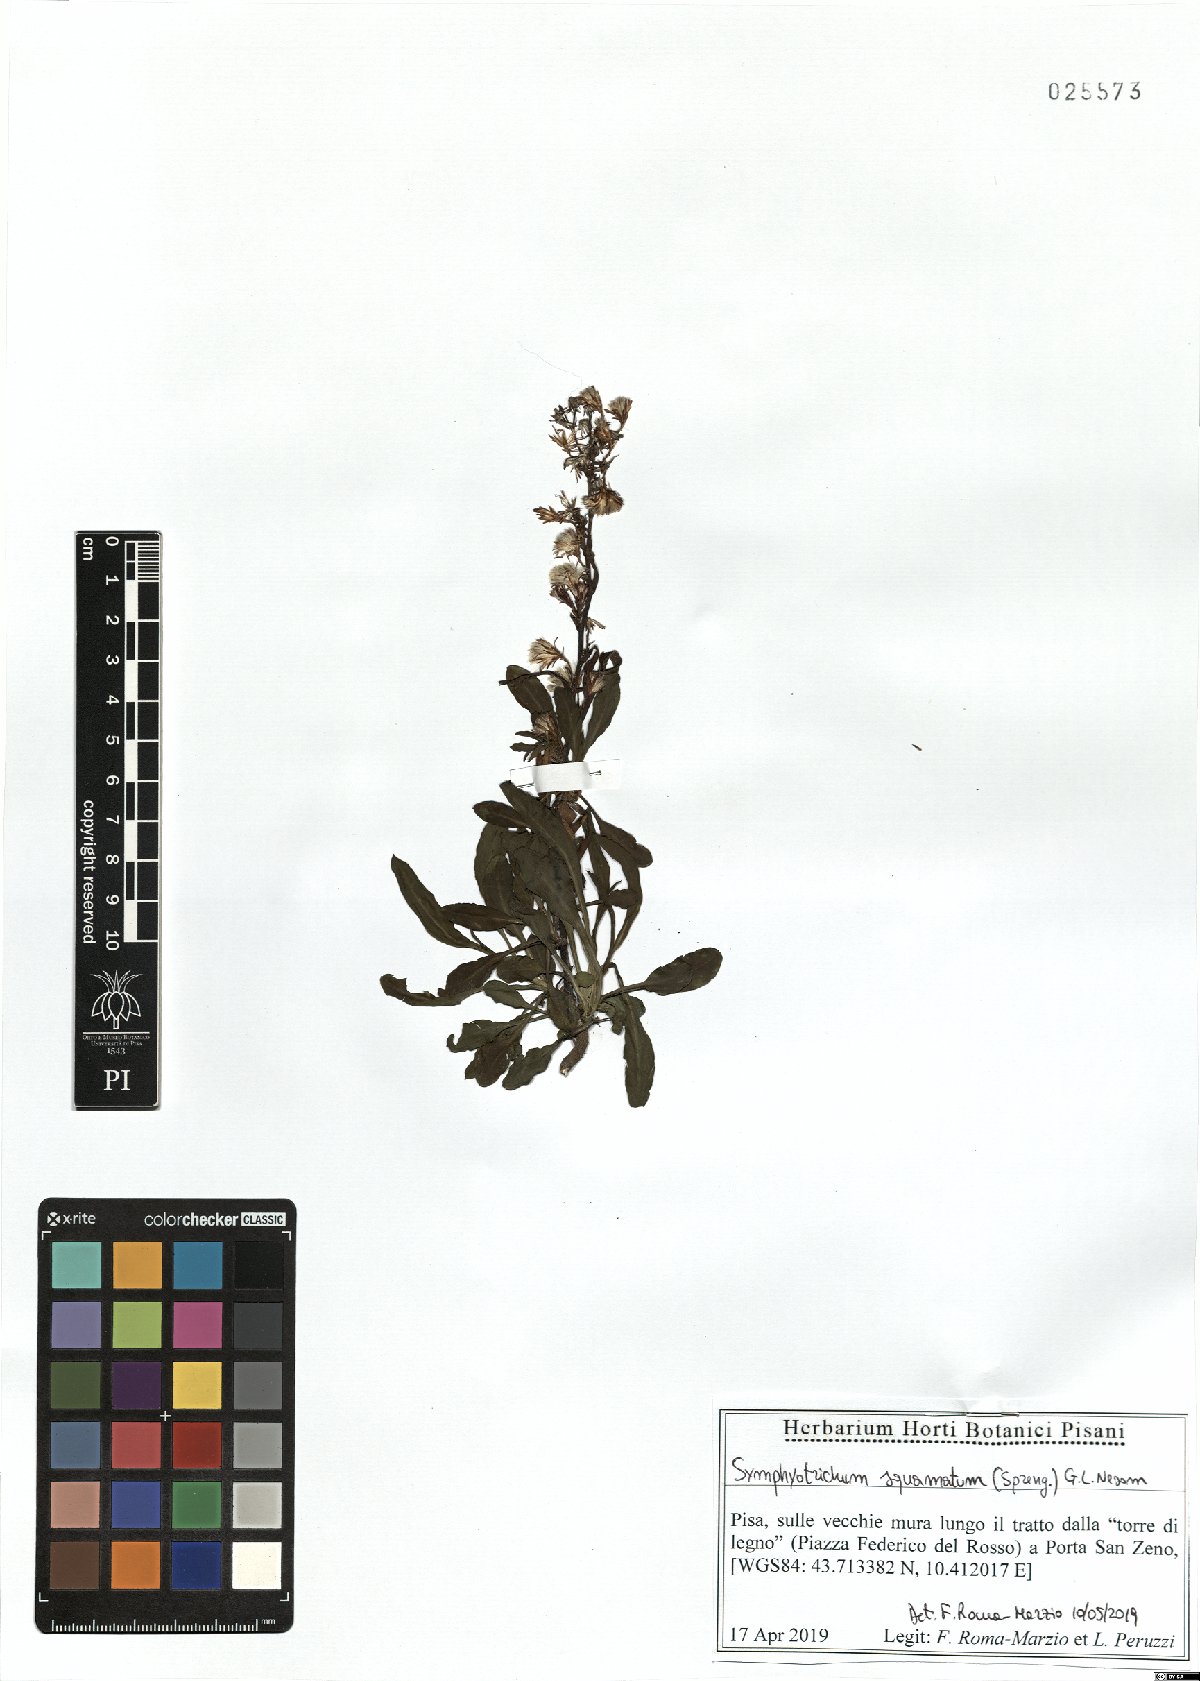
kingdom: Plantae
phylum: Tracheophyta
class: Magnoliopsida
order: Asterales
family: Asteraceae
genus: Symphyotrichum
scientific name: Symphyotrichum squamatum
